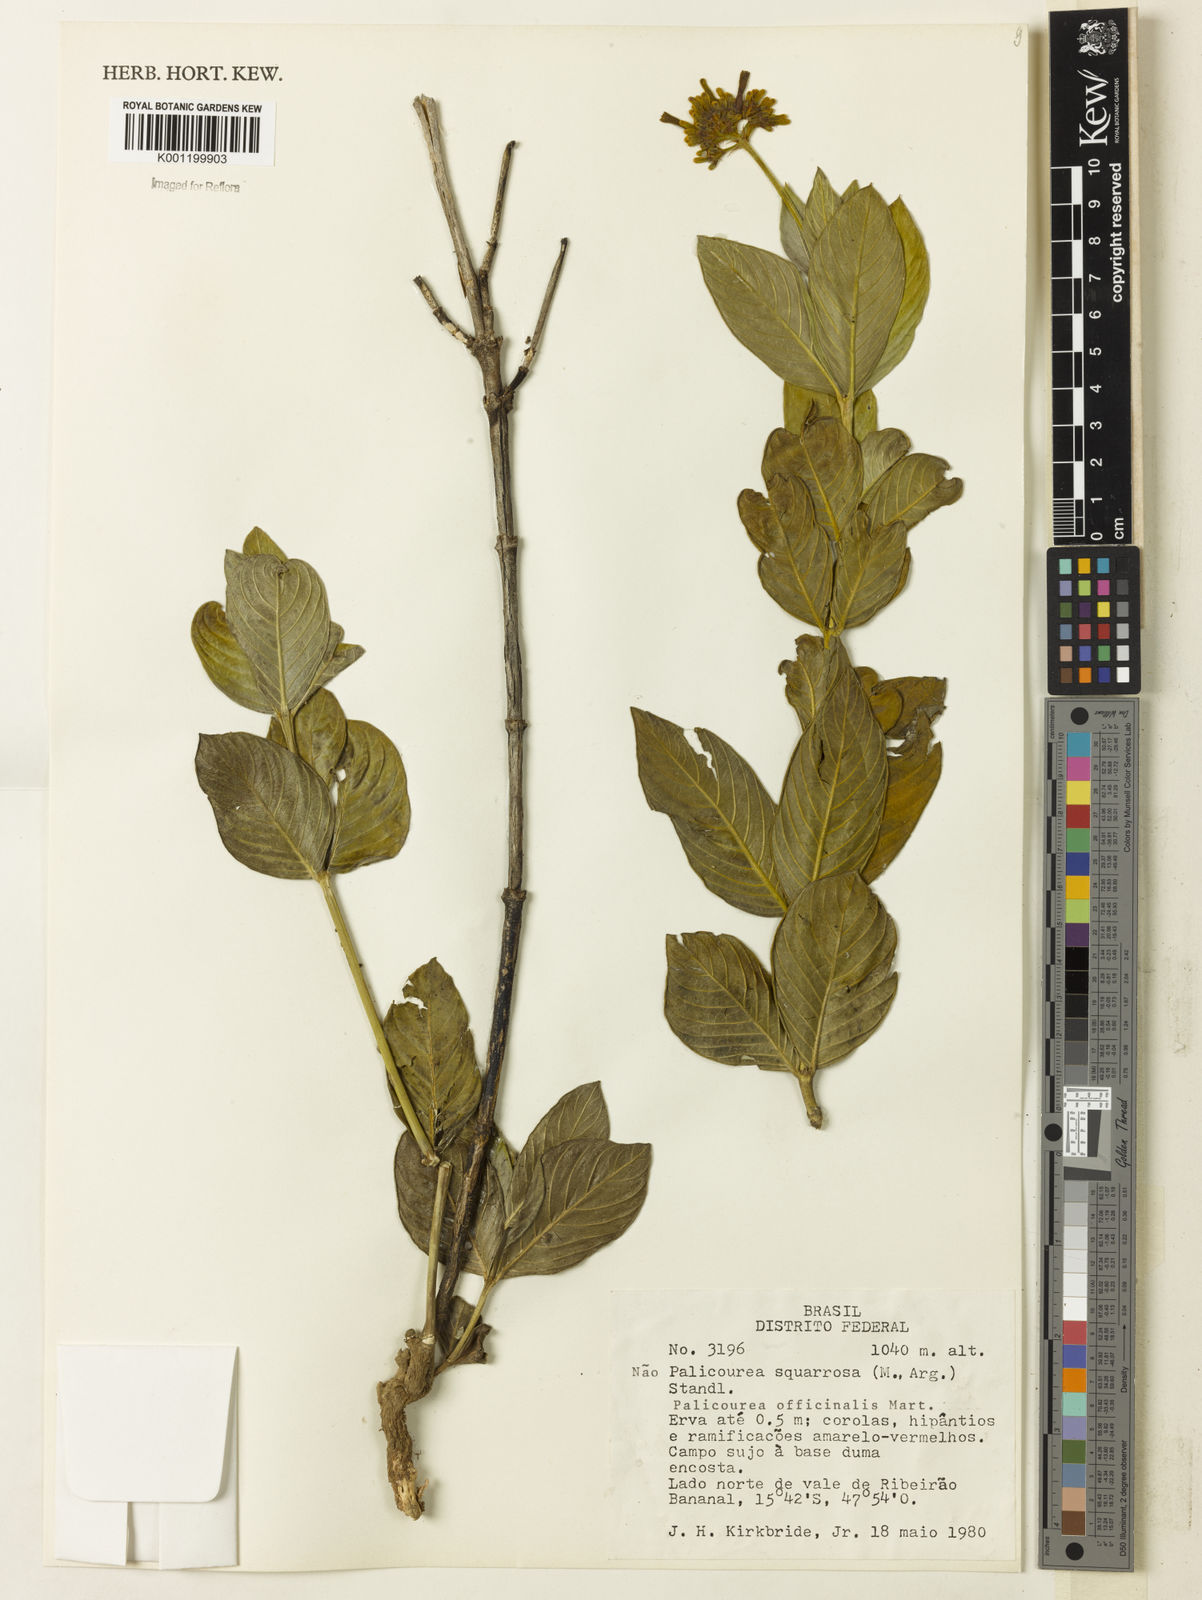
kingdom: Plantae
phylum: Tracheophyta
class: Magnoliopsida
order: Gentianales
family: Rubiaceae
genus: Palicourea
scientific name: Palicourea
